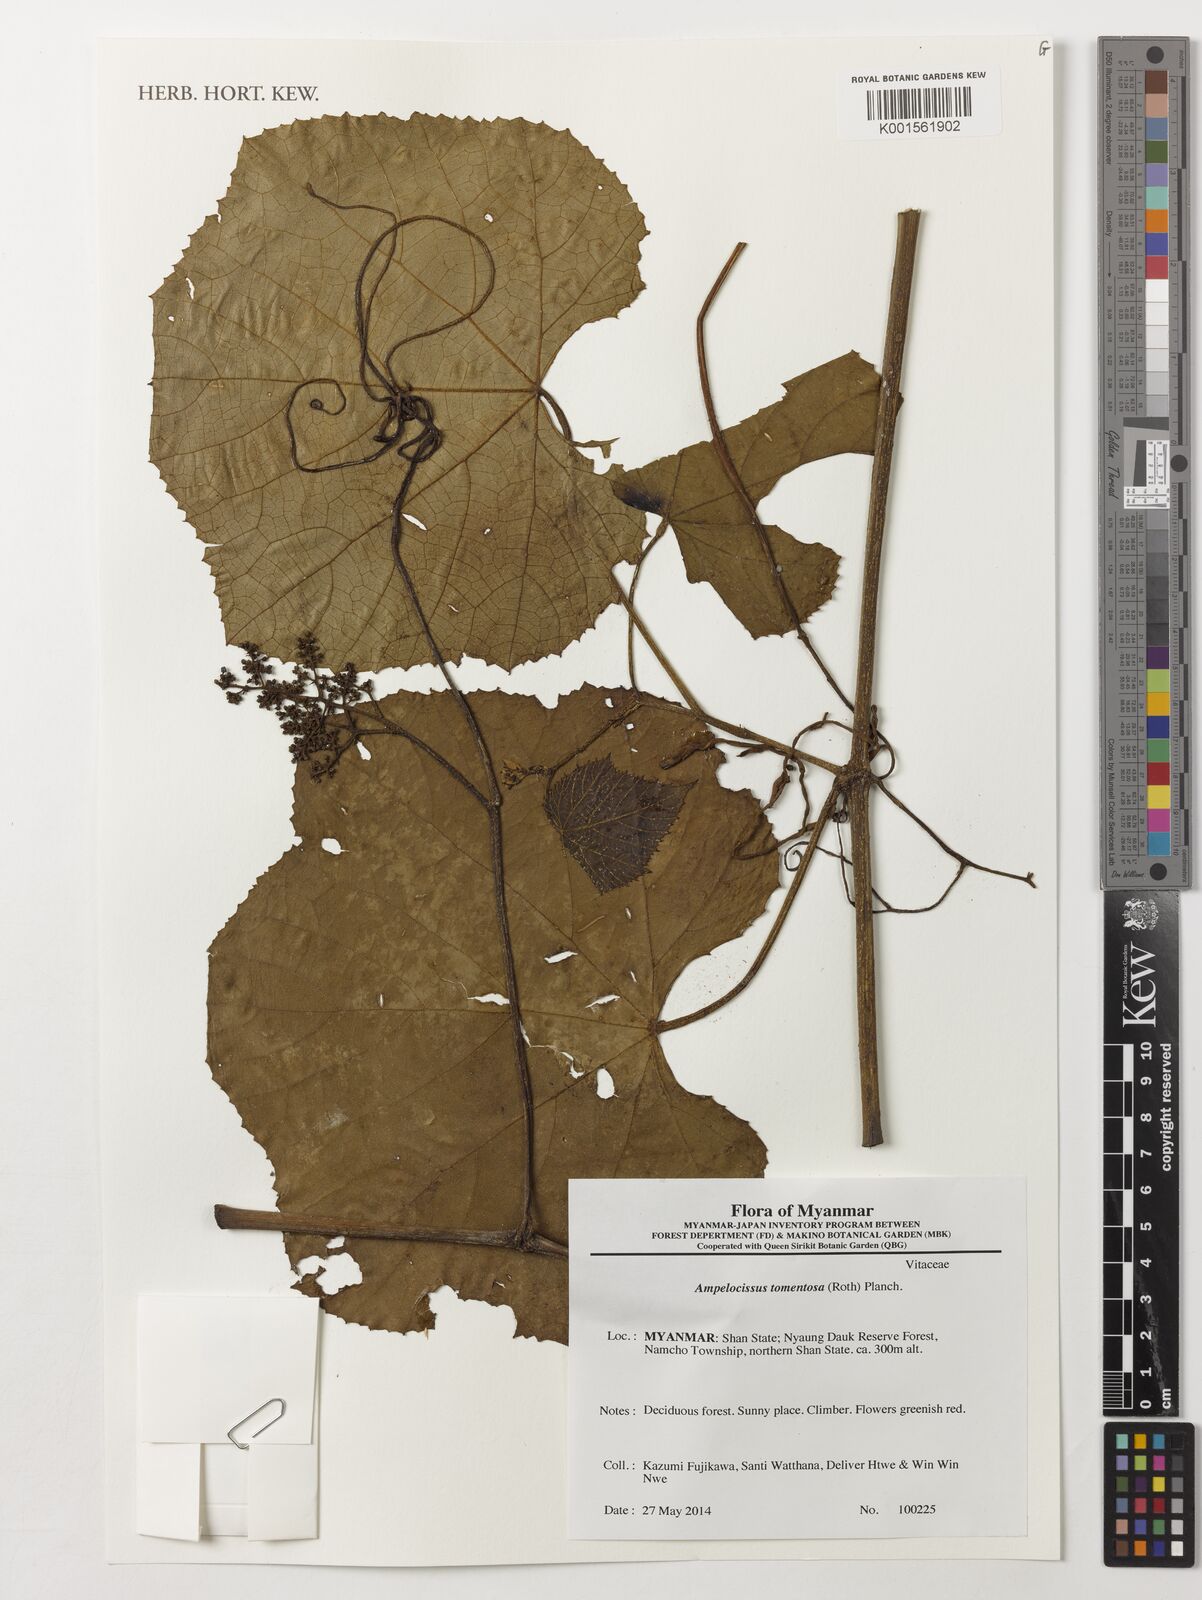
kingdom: Plantae
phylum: Tracheophyta
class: Magnoliopsida
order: Vitales
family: Vitaceae
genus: Ampelocissus
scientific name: Ampelocissus tomentosa
